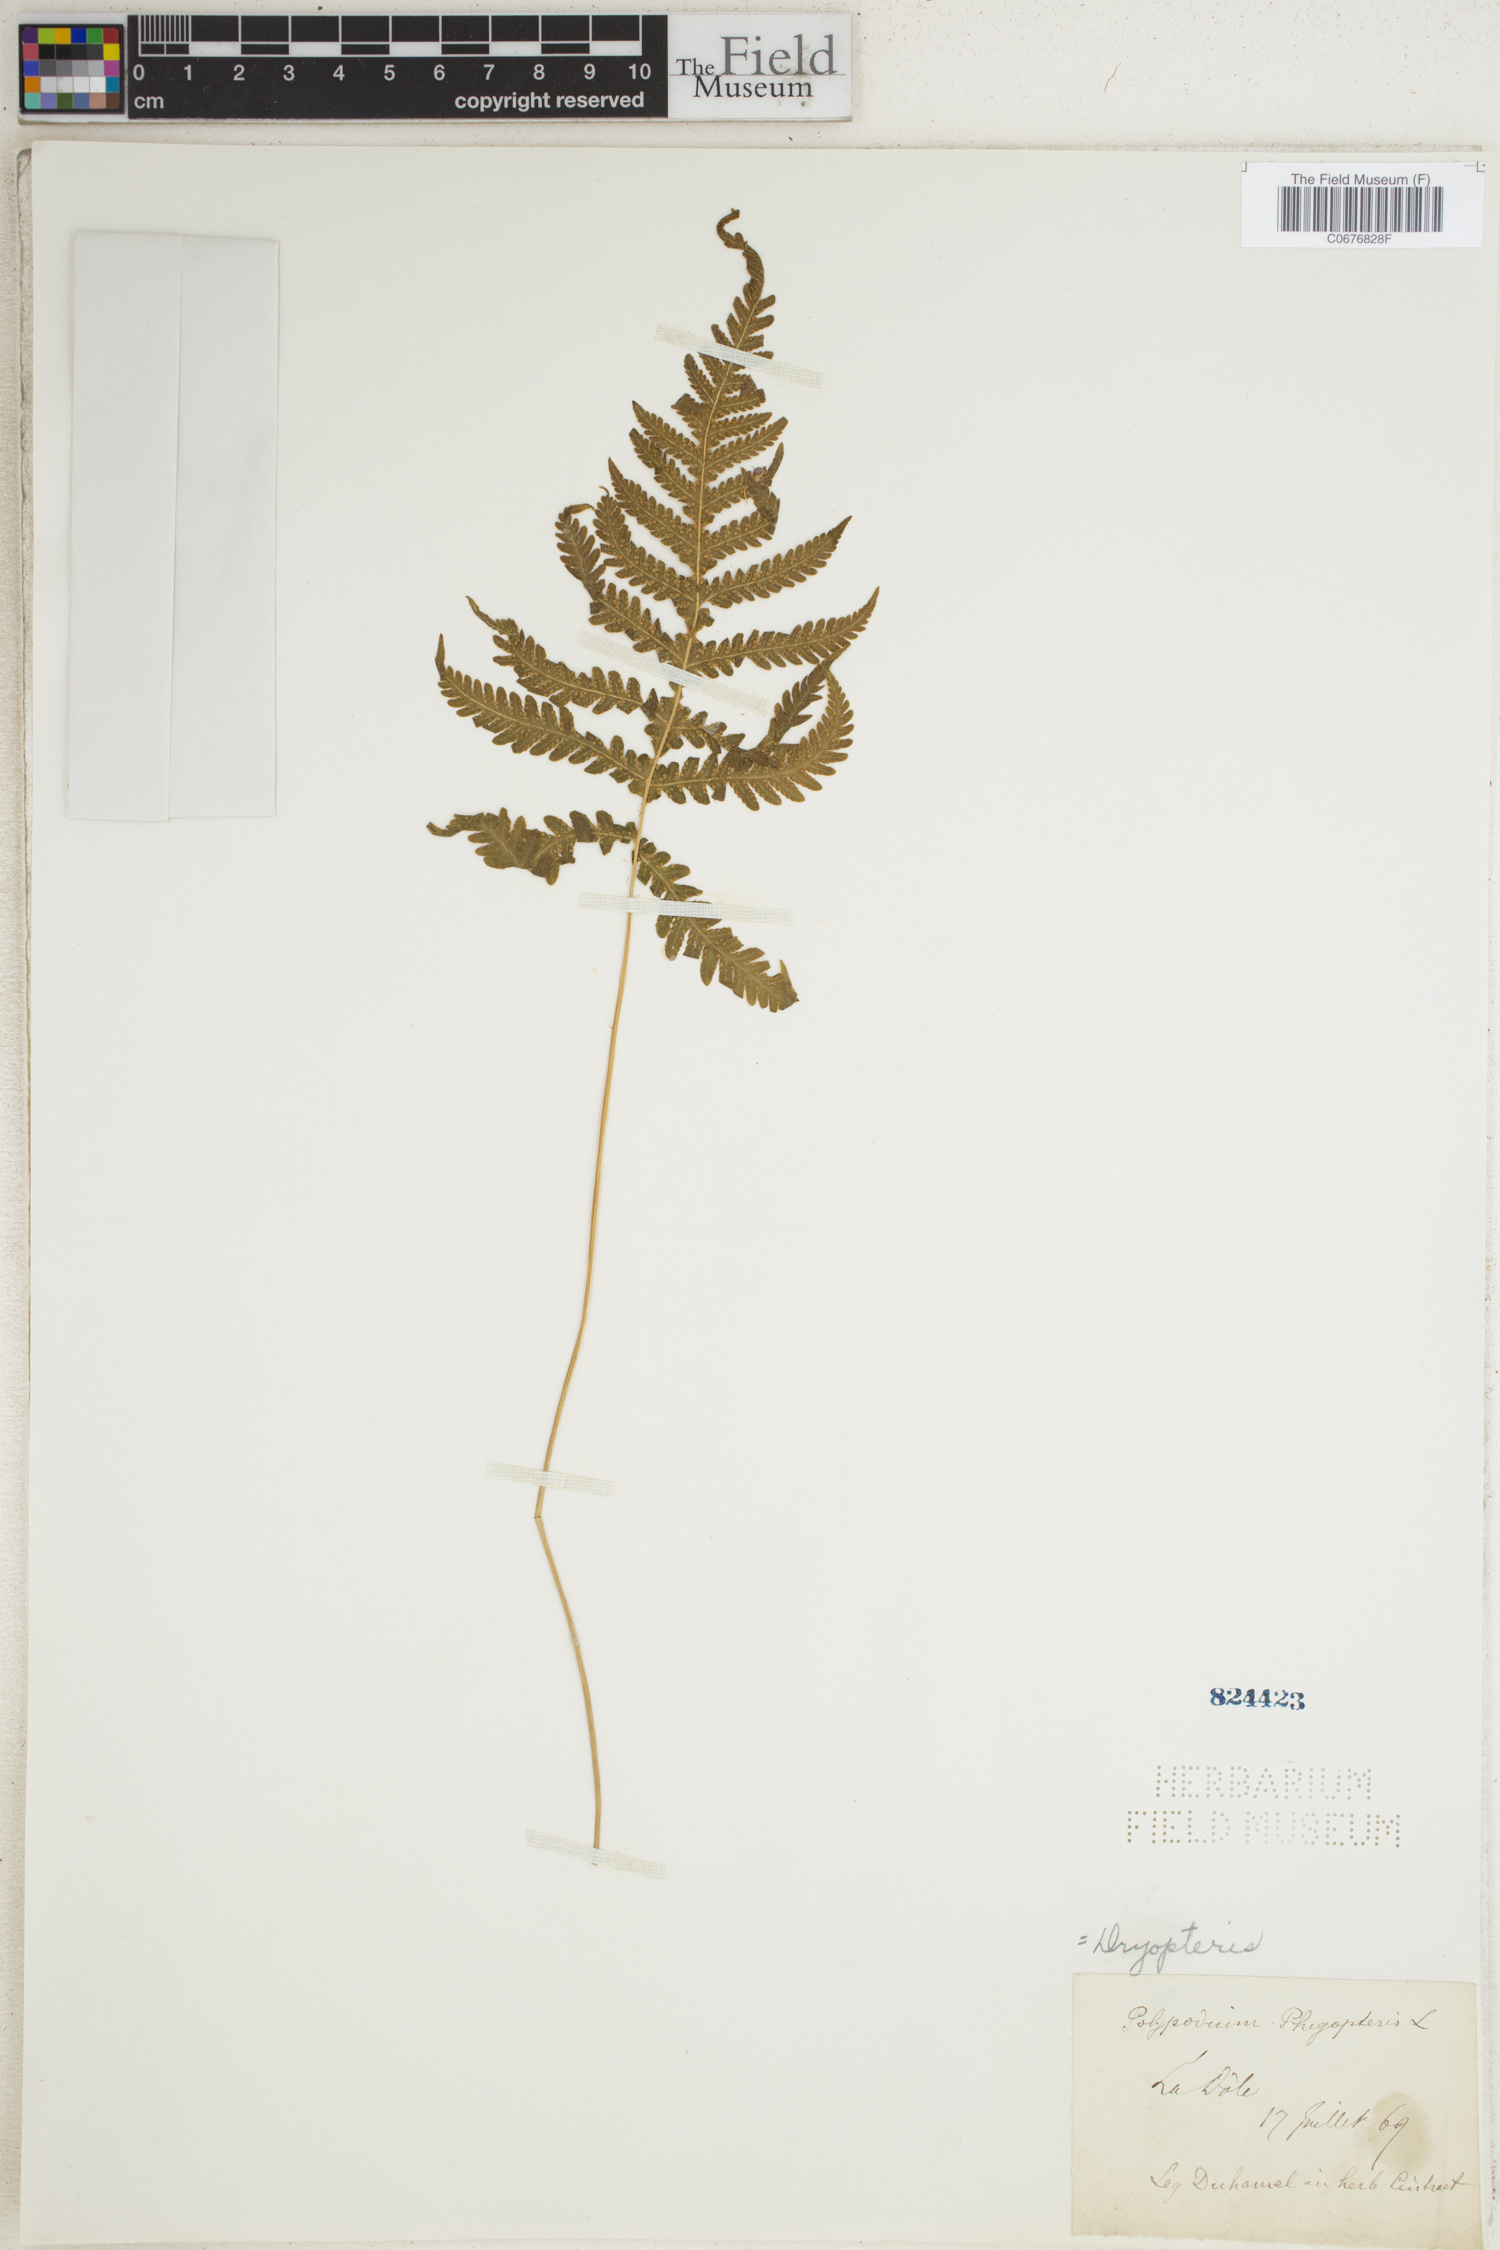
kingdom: Plantae
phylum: Tracheophyta
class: Polypodiopsida
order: Polypodiales
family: Thelypteridaceae
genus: Phegopteris
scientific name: Phegopteris connectilis
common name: Beech fern
